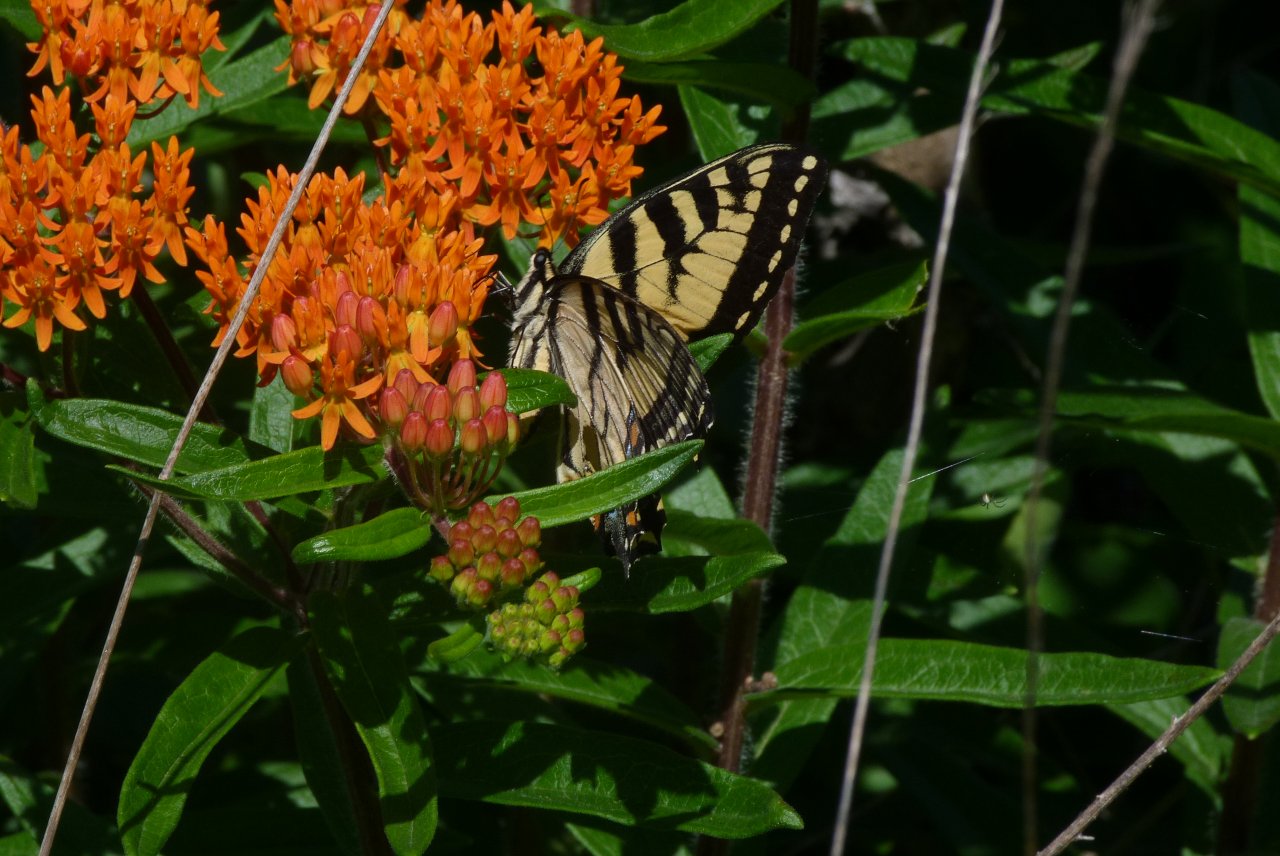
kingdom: Animalia
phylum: Arthropoda
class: Insecta
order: Lepidoptera
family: Papilionidae
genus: Pterourus
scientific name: Pterourus
